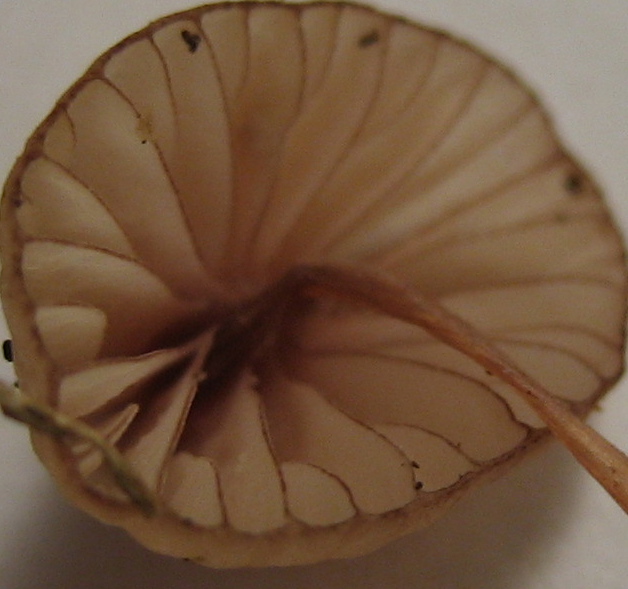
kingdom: Fungi
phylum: Basidiomycota
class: Agaricomycetes
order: Agaricales
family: Mycenaceae
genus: Mycena
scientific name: Mycena sanguinolenta
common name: rødmælket huesvamp
